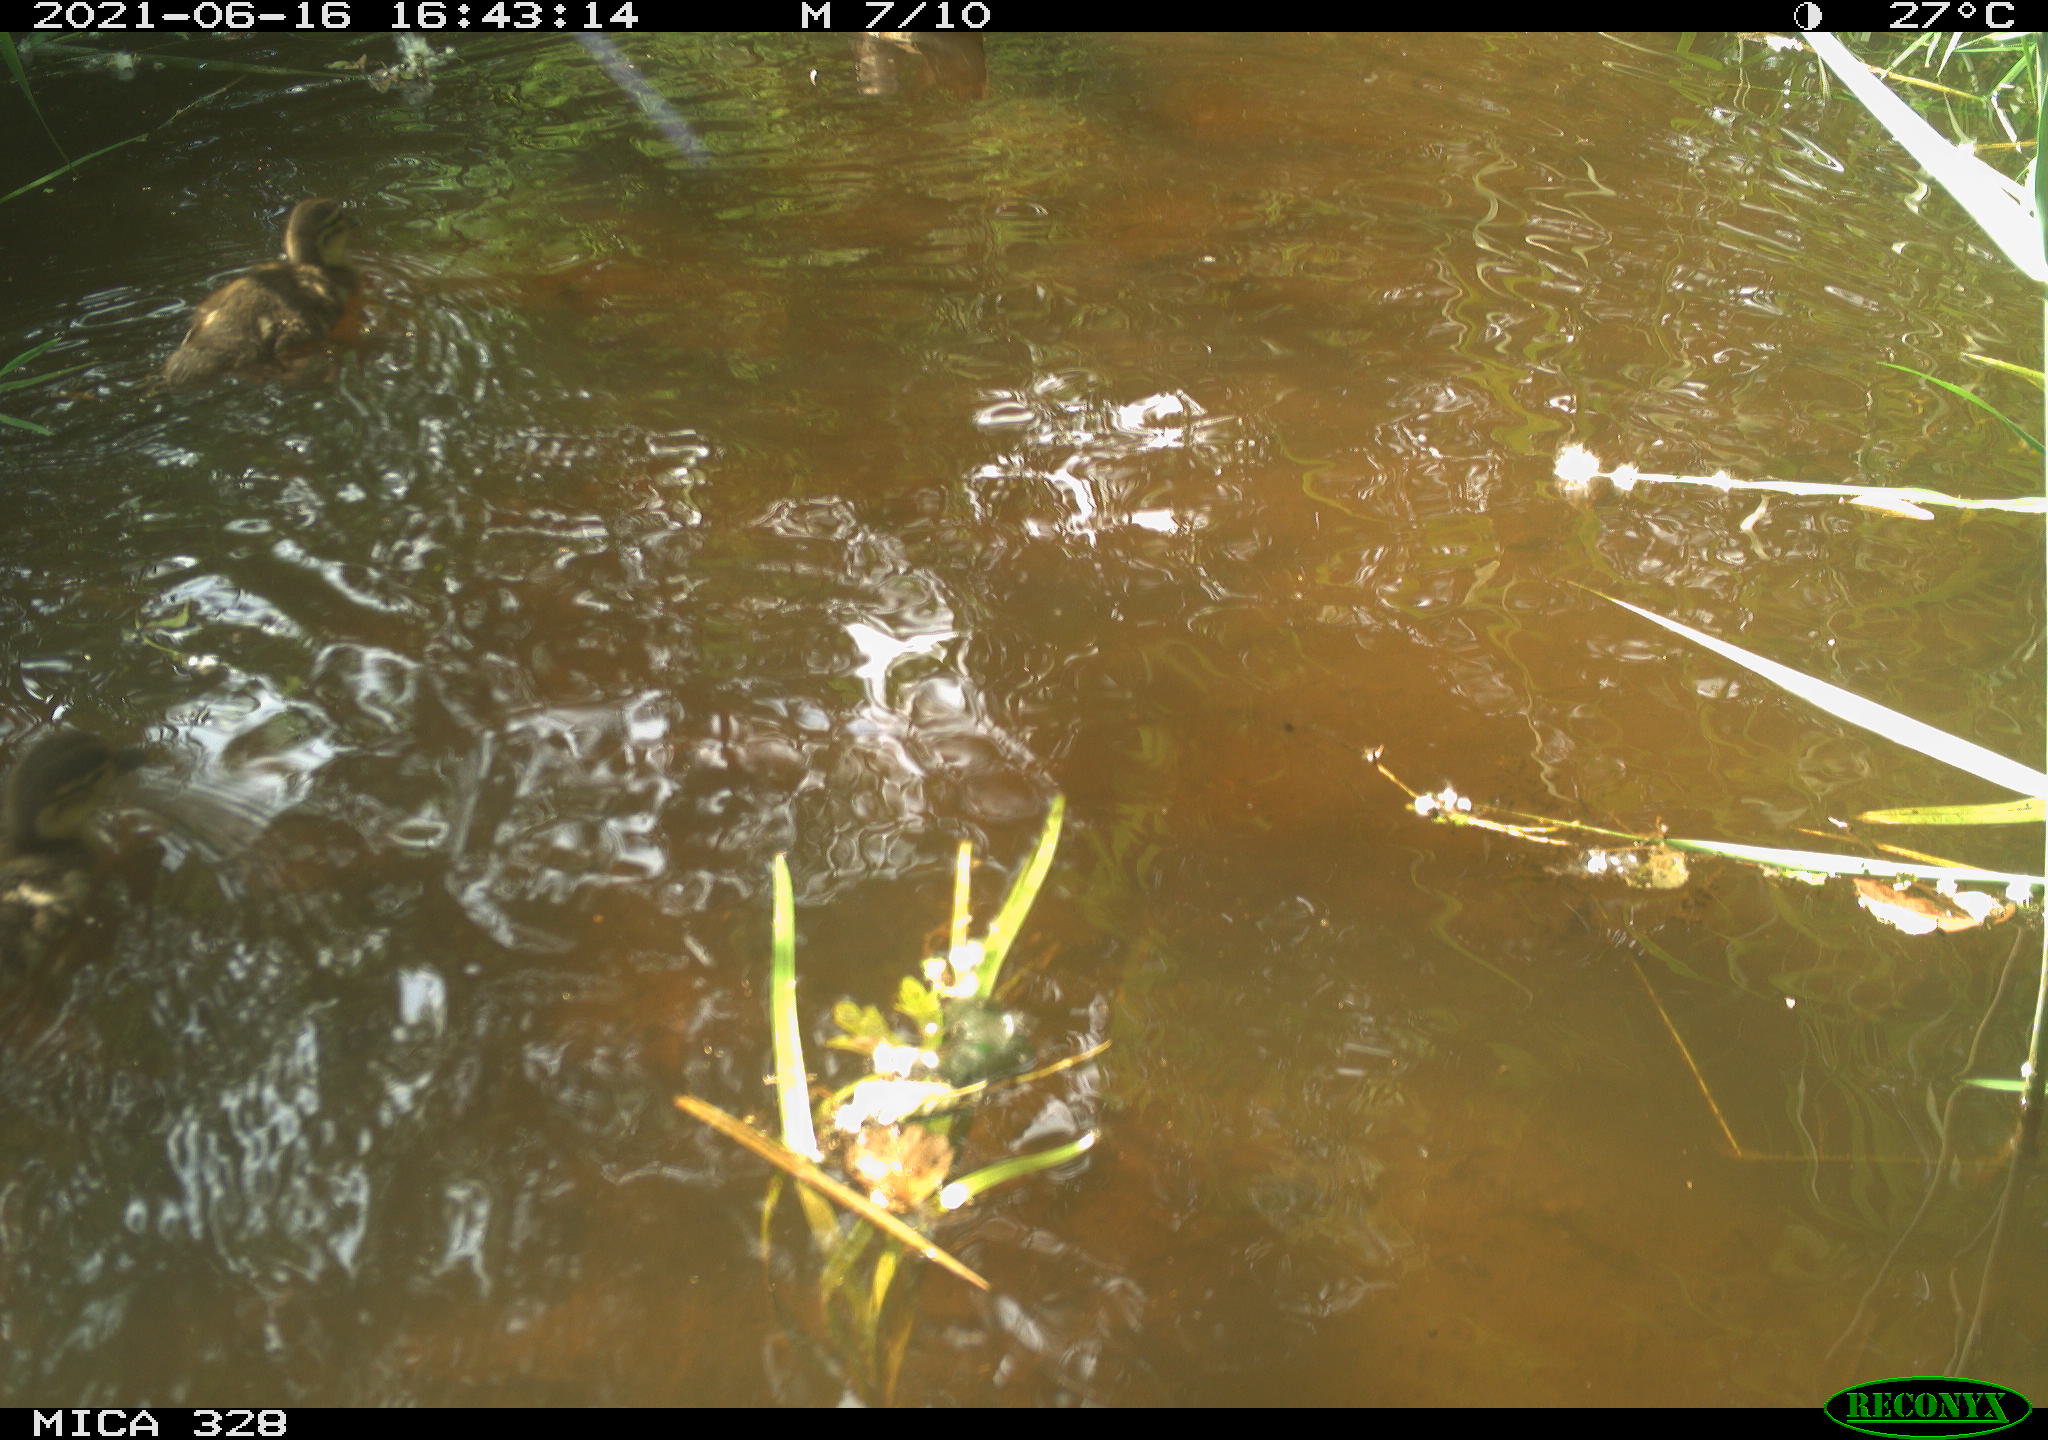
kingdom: Animalia
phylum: Chordata
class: Aves
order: Anseriformes
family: Anatidae
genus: Aix
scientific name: Aix galericulata
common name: Mandarin duck
